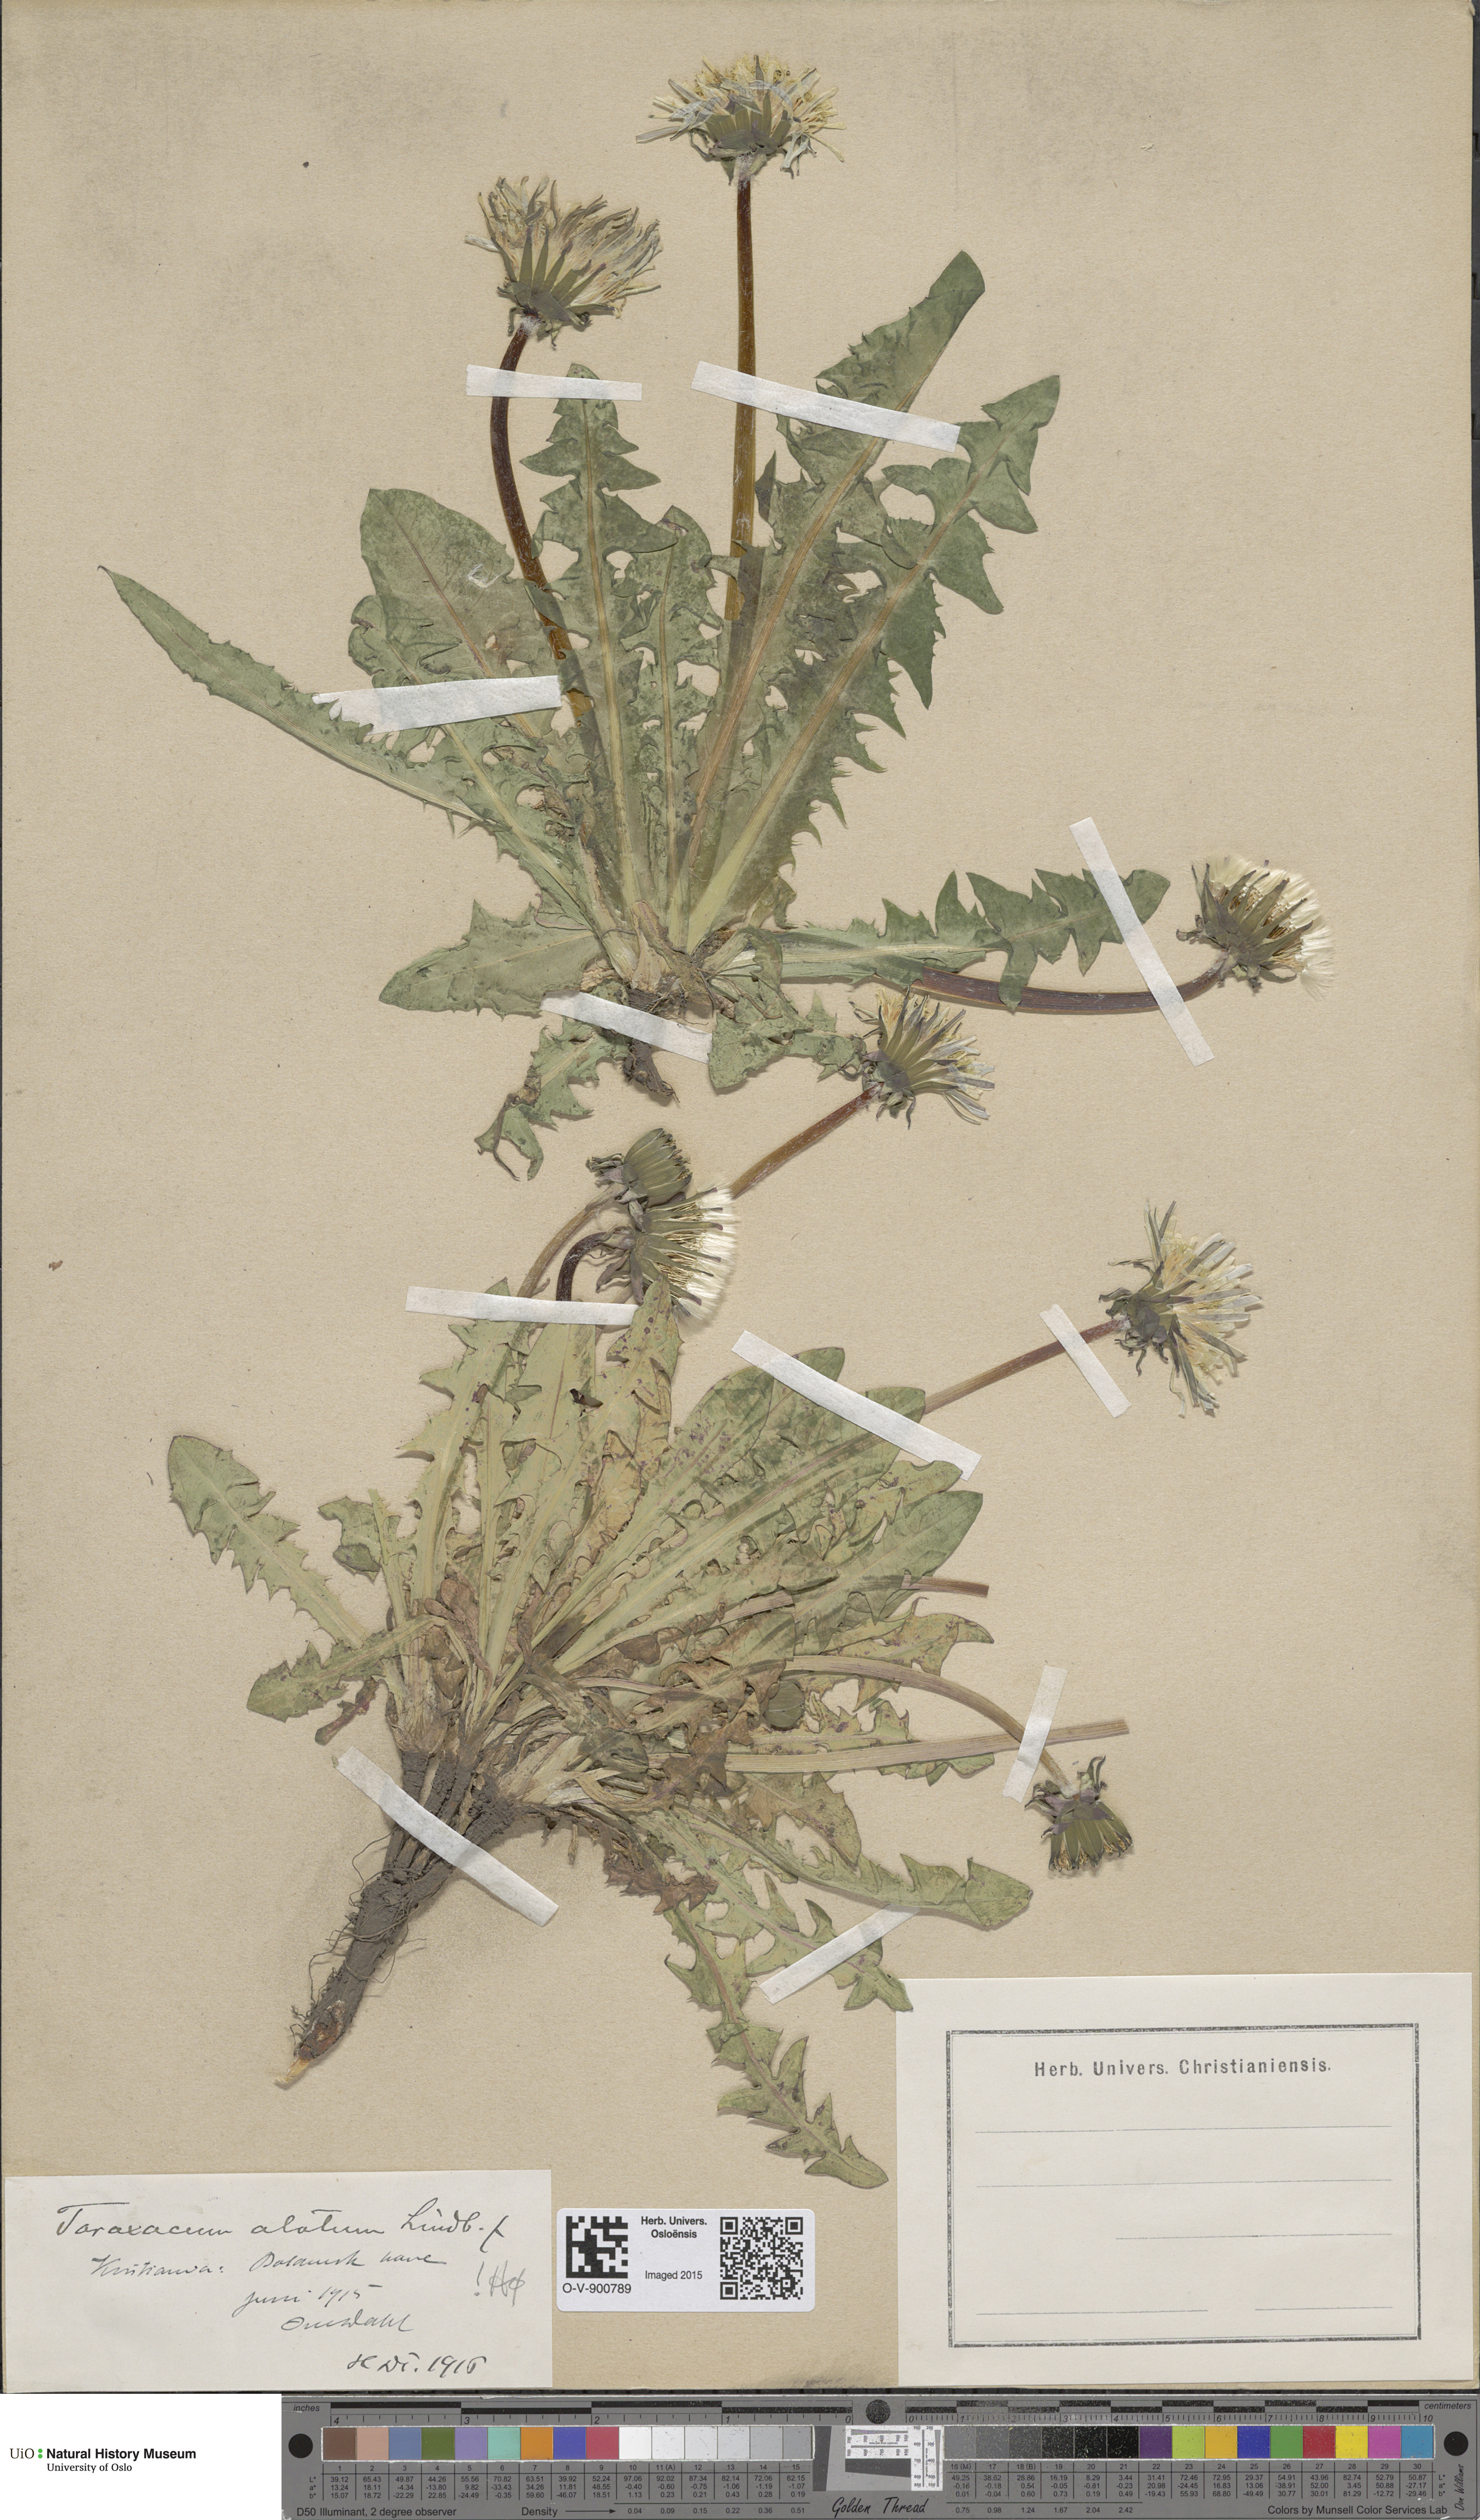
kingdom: Plantae
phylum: Tracheophyta
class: Magnoliopsida
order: Asterales
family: Asteraceae
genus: Taraxacum
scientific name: Taraxacum alatum
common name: Green dandelion
